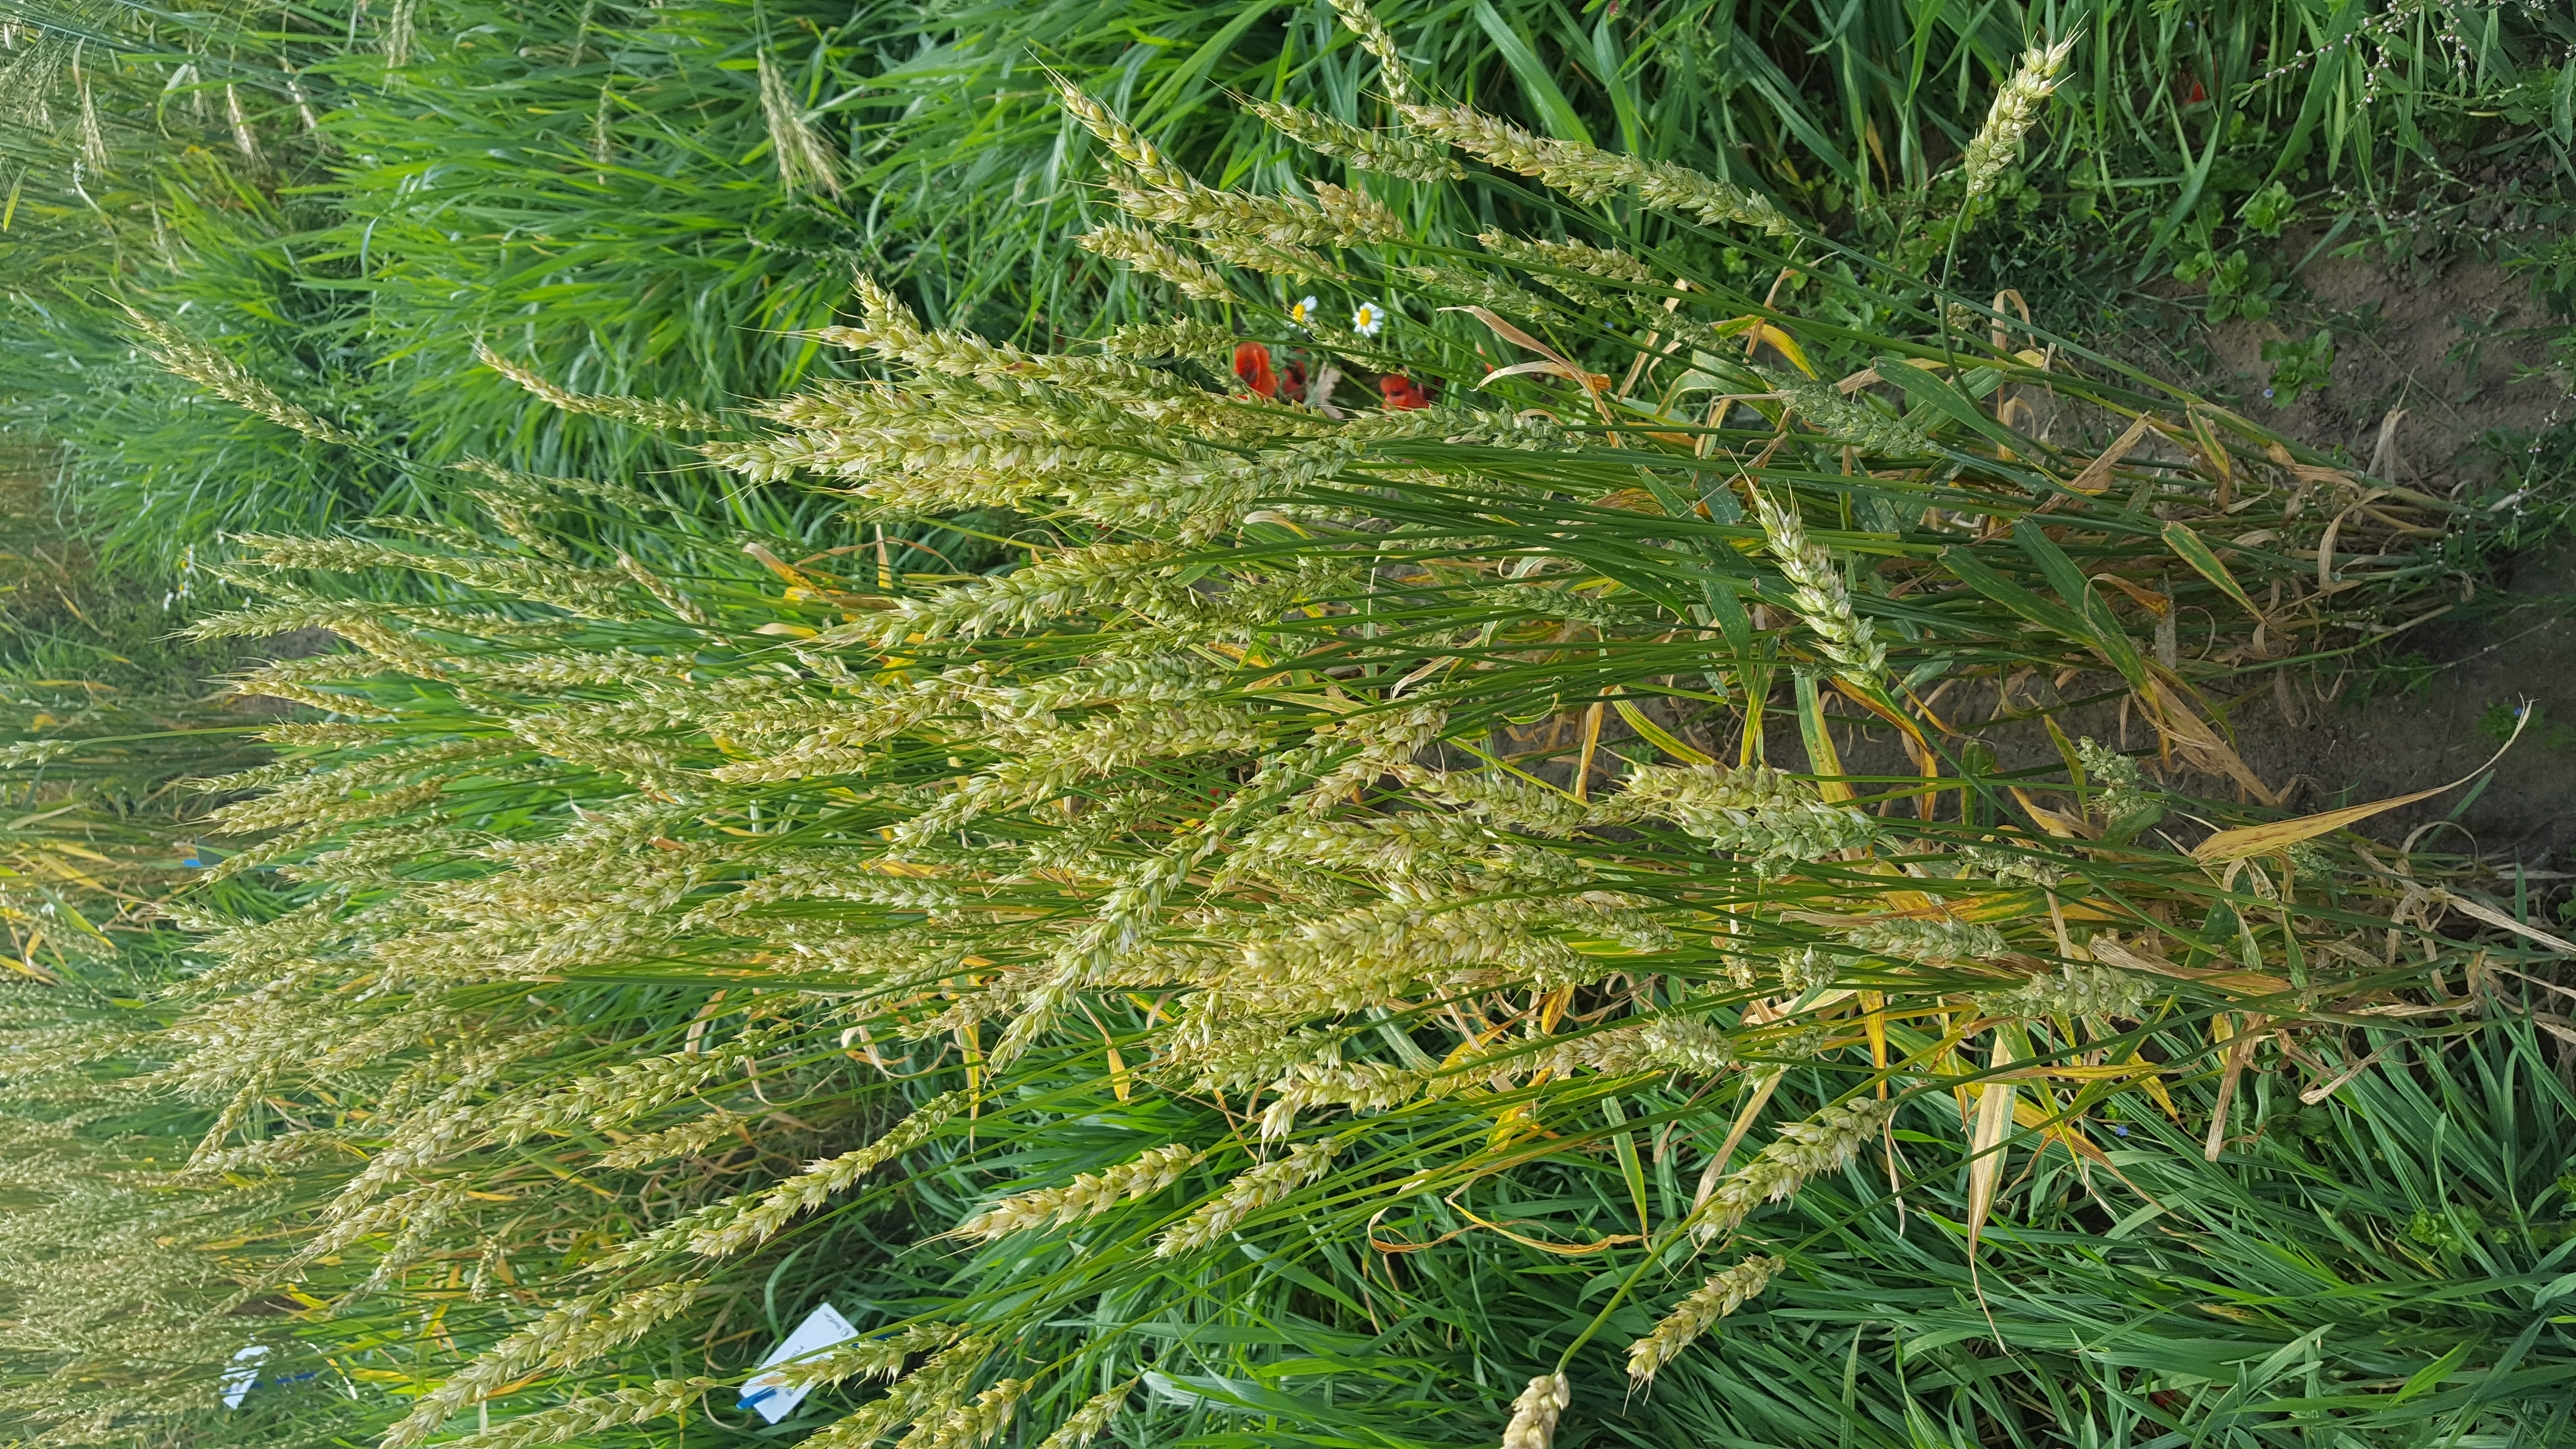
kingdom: Plantae
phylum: Tracheophyta
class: Liliopsida
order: Poales
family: Poaceae
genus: Triticum
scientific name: Triticum aestivum
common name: Common wheat
